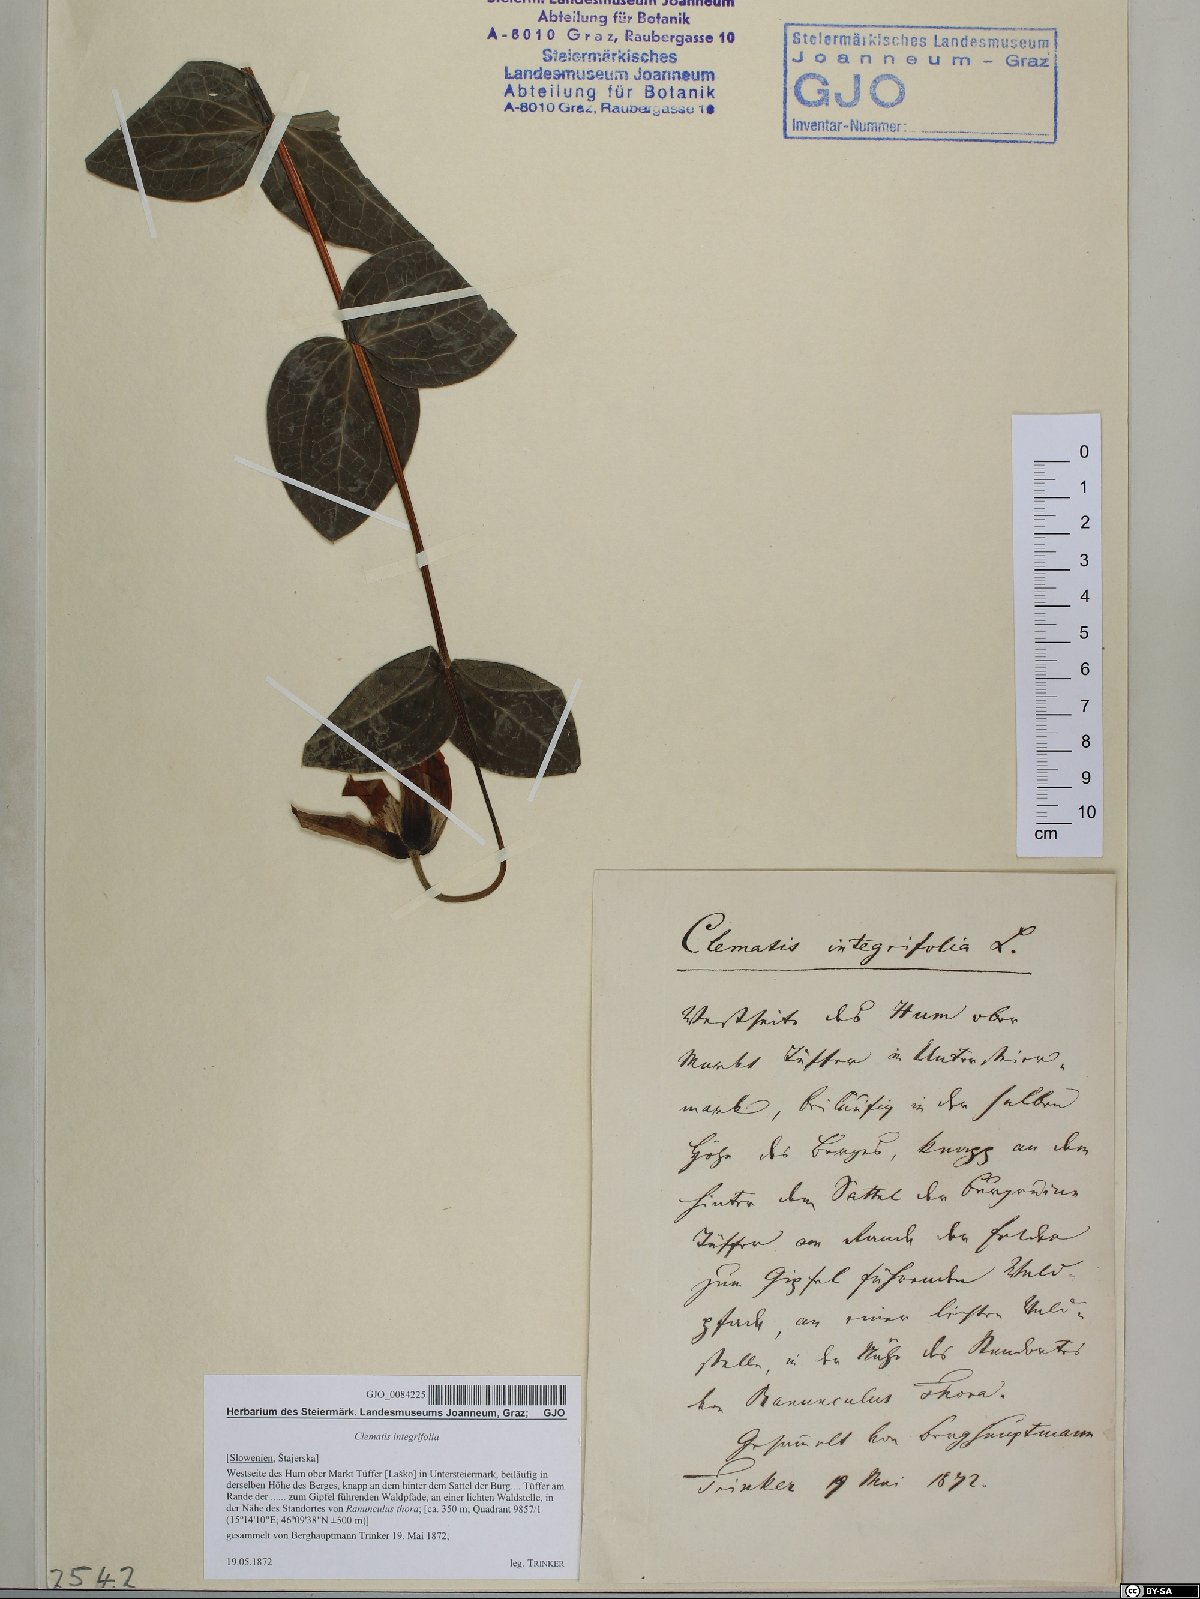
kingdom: Plantae
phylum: Tracheophyta
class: Magnoliopsida
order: Ranunculales
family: Ranunculaceae
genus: Clematis
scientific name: Clematis integrifolia
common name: Solitary clematis
